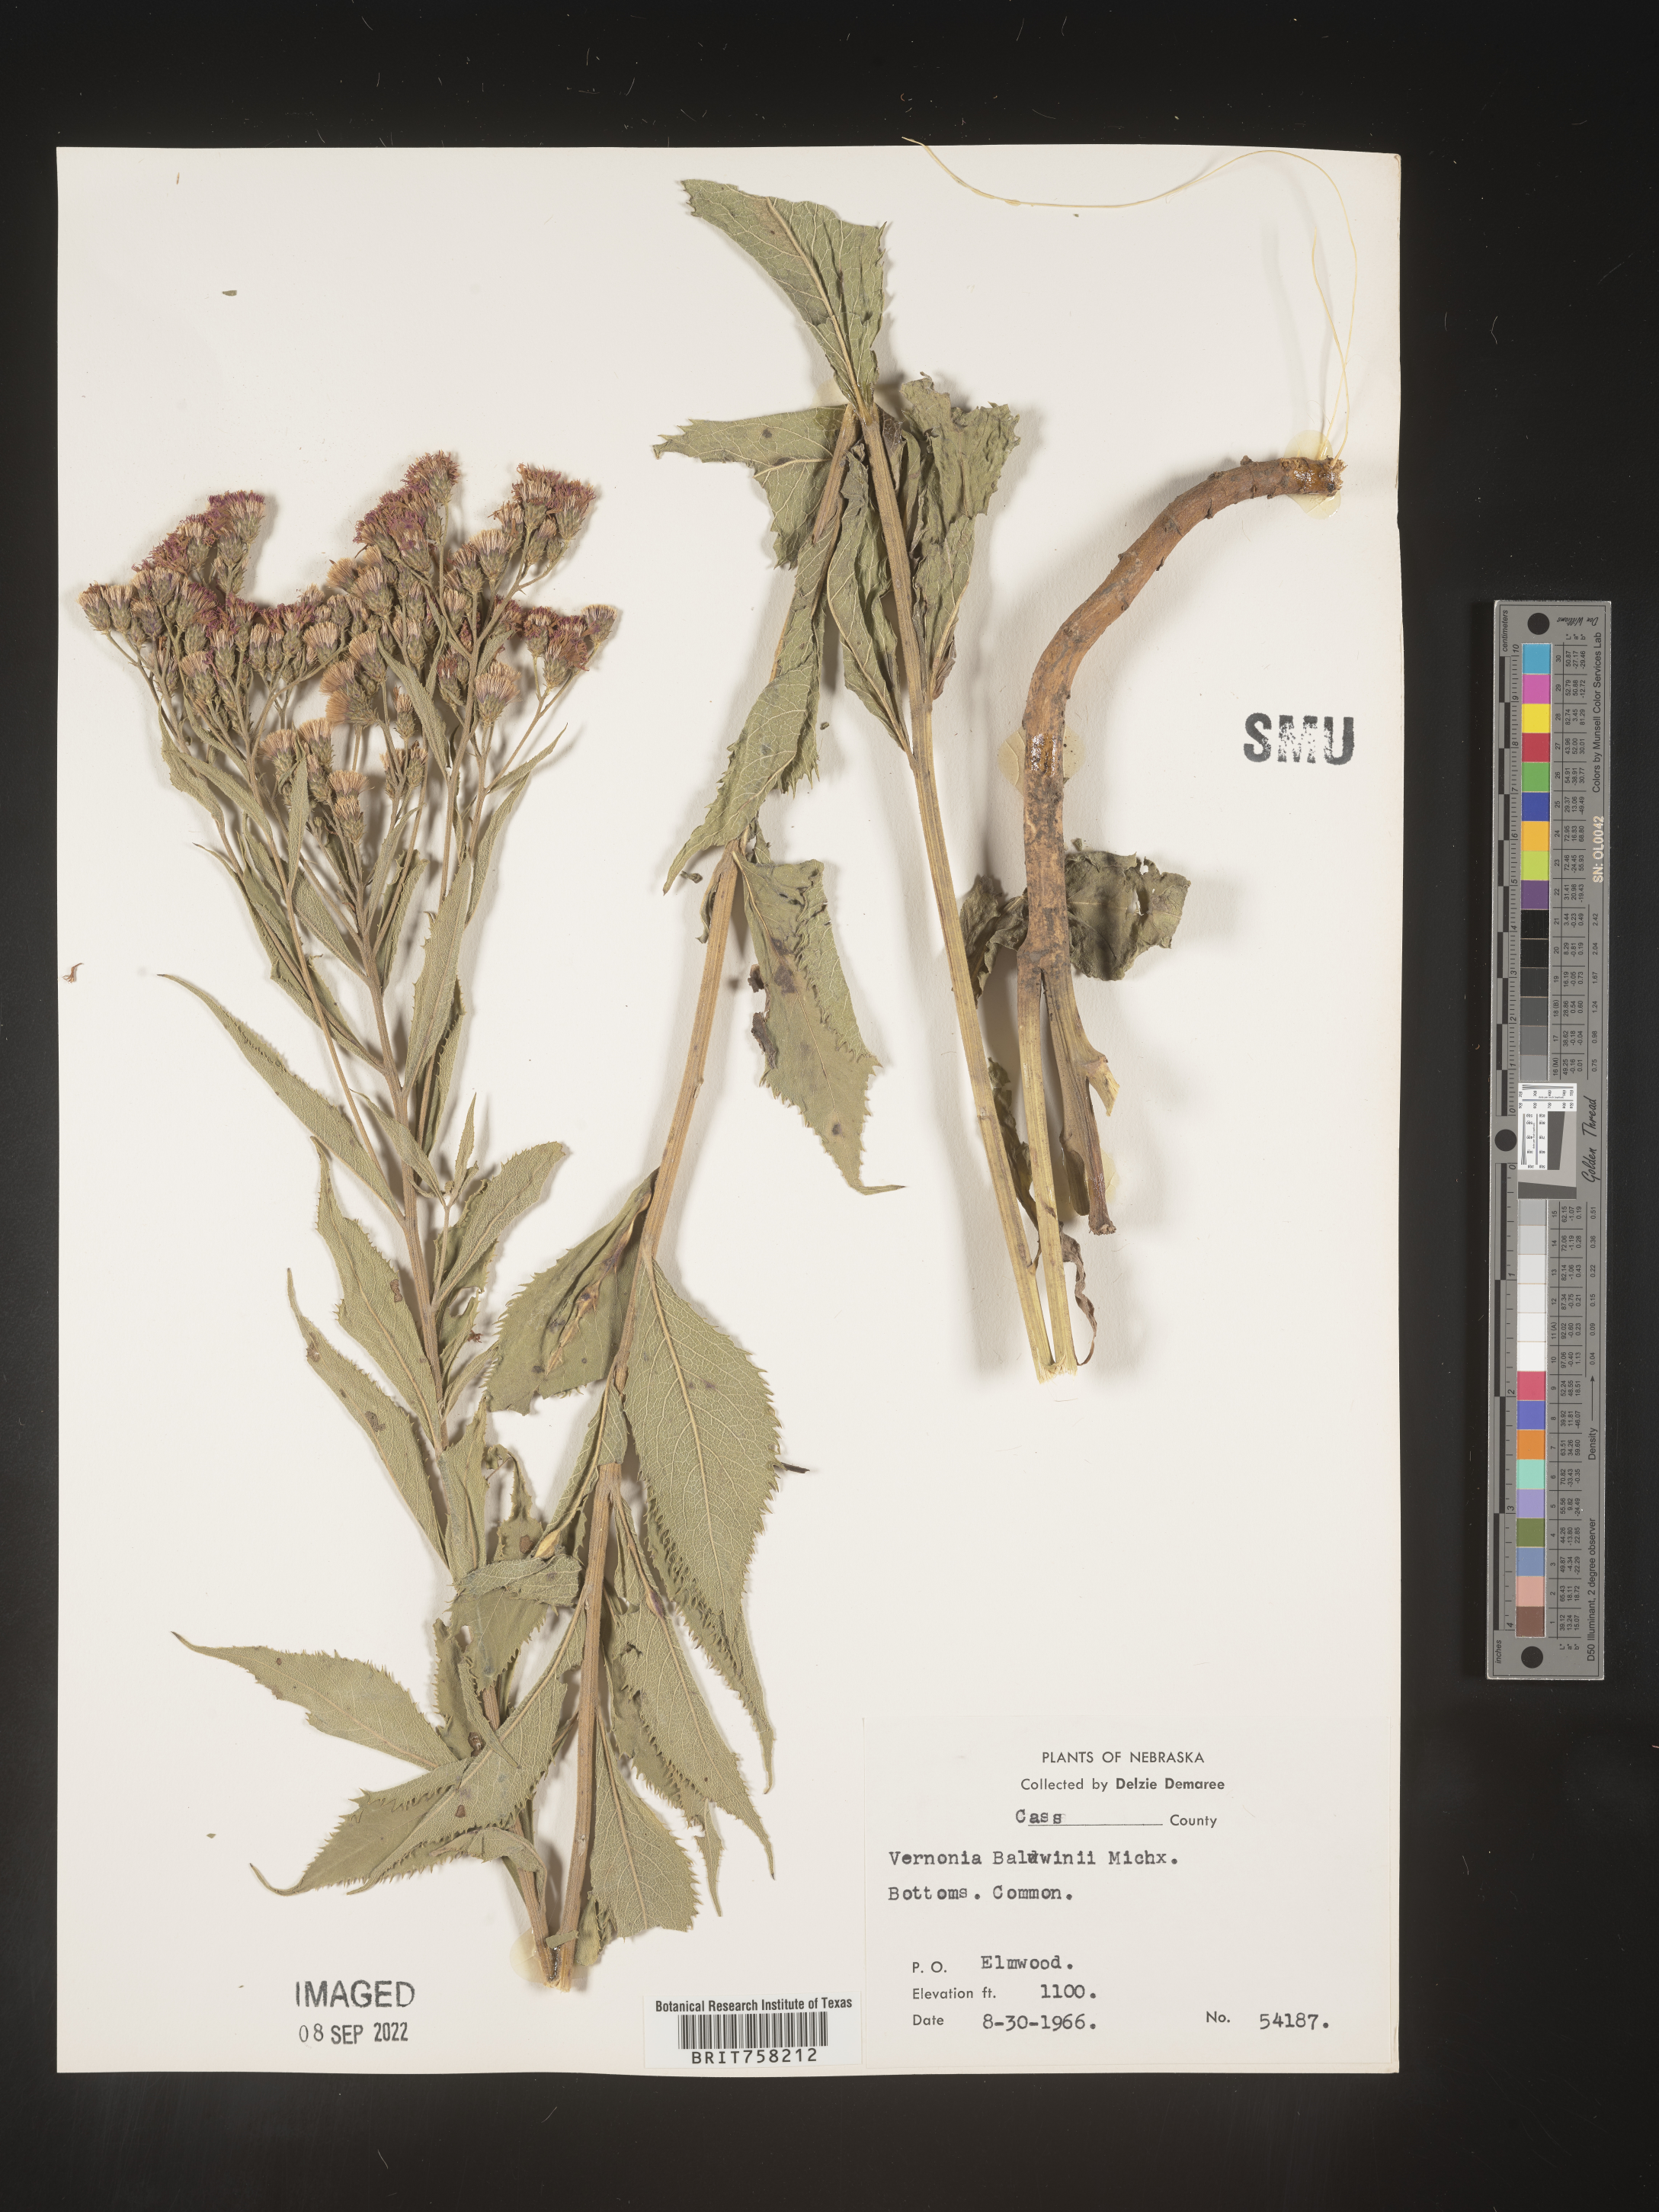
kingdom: Plantae
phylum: Tracheophyta
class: Magnoliopsida
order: Asterales
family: Asteraceae
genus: Vernonia
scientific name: Vernonia baldwinii
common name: Western ironweed
